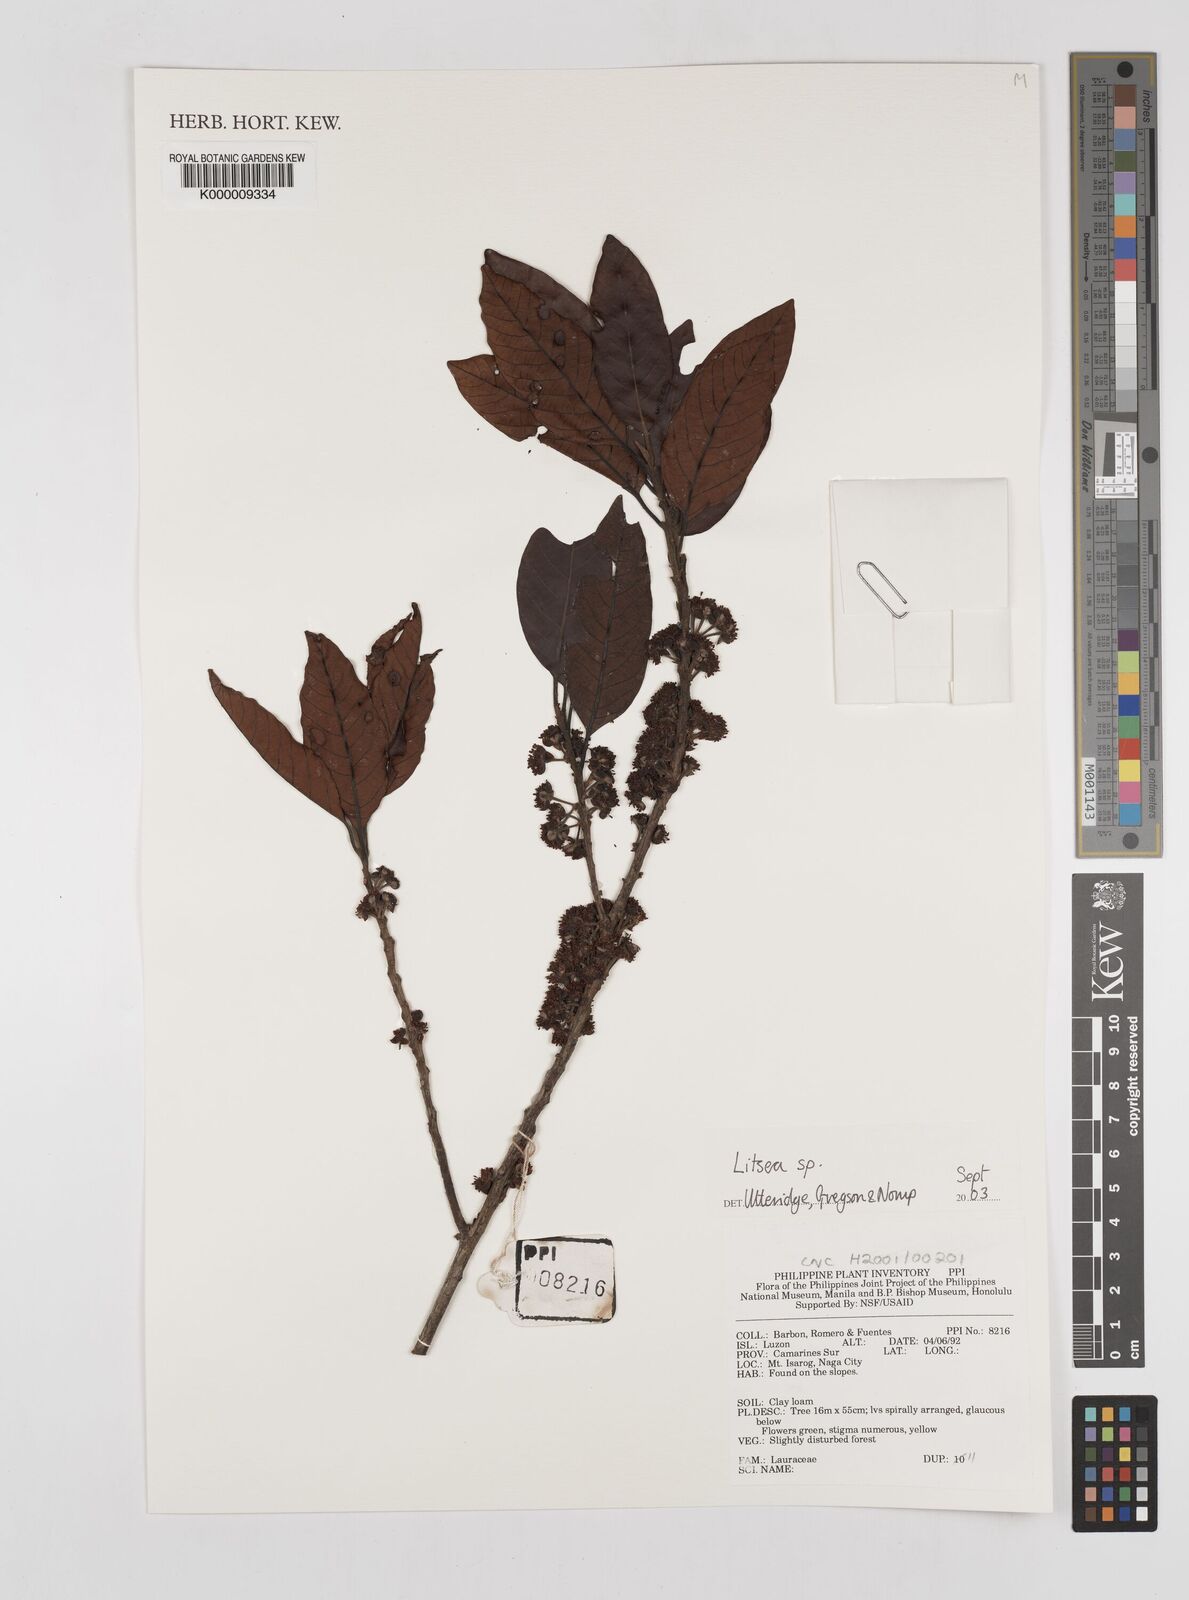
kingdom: Plantae
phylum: Tracheophyta
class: Magnoliopsida
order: Laurales
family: Lauraceae
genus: Litsea
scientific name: Litsea
